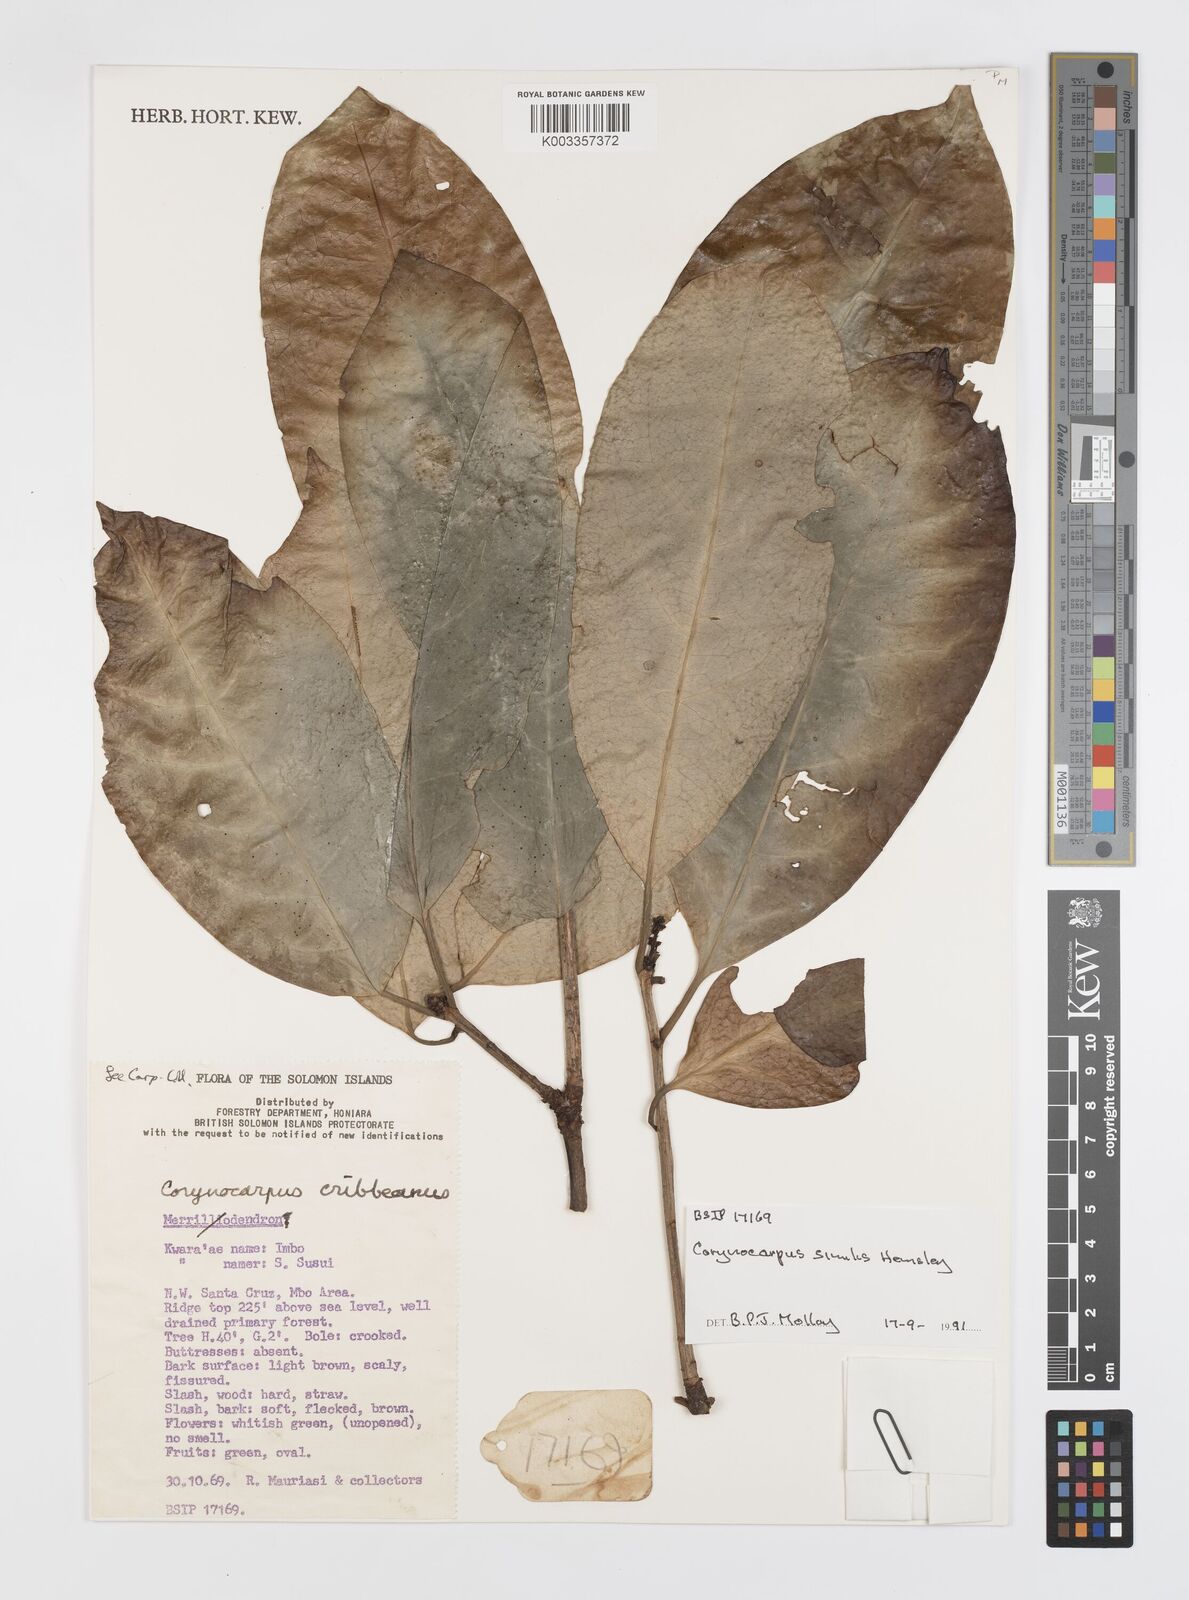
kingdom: Plantae
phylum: Tracheophyta
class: Magnoliopsida
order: Cucurbitales
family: Corynocarpaceae
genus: Corynocarpus
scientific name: Corynocarpus similis
